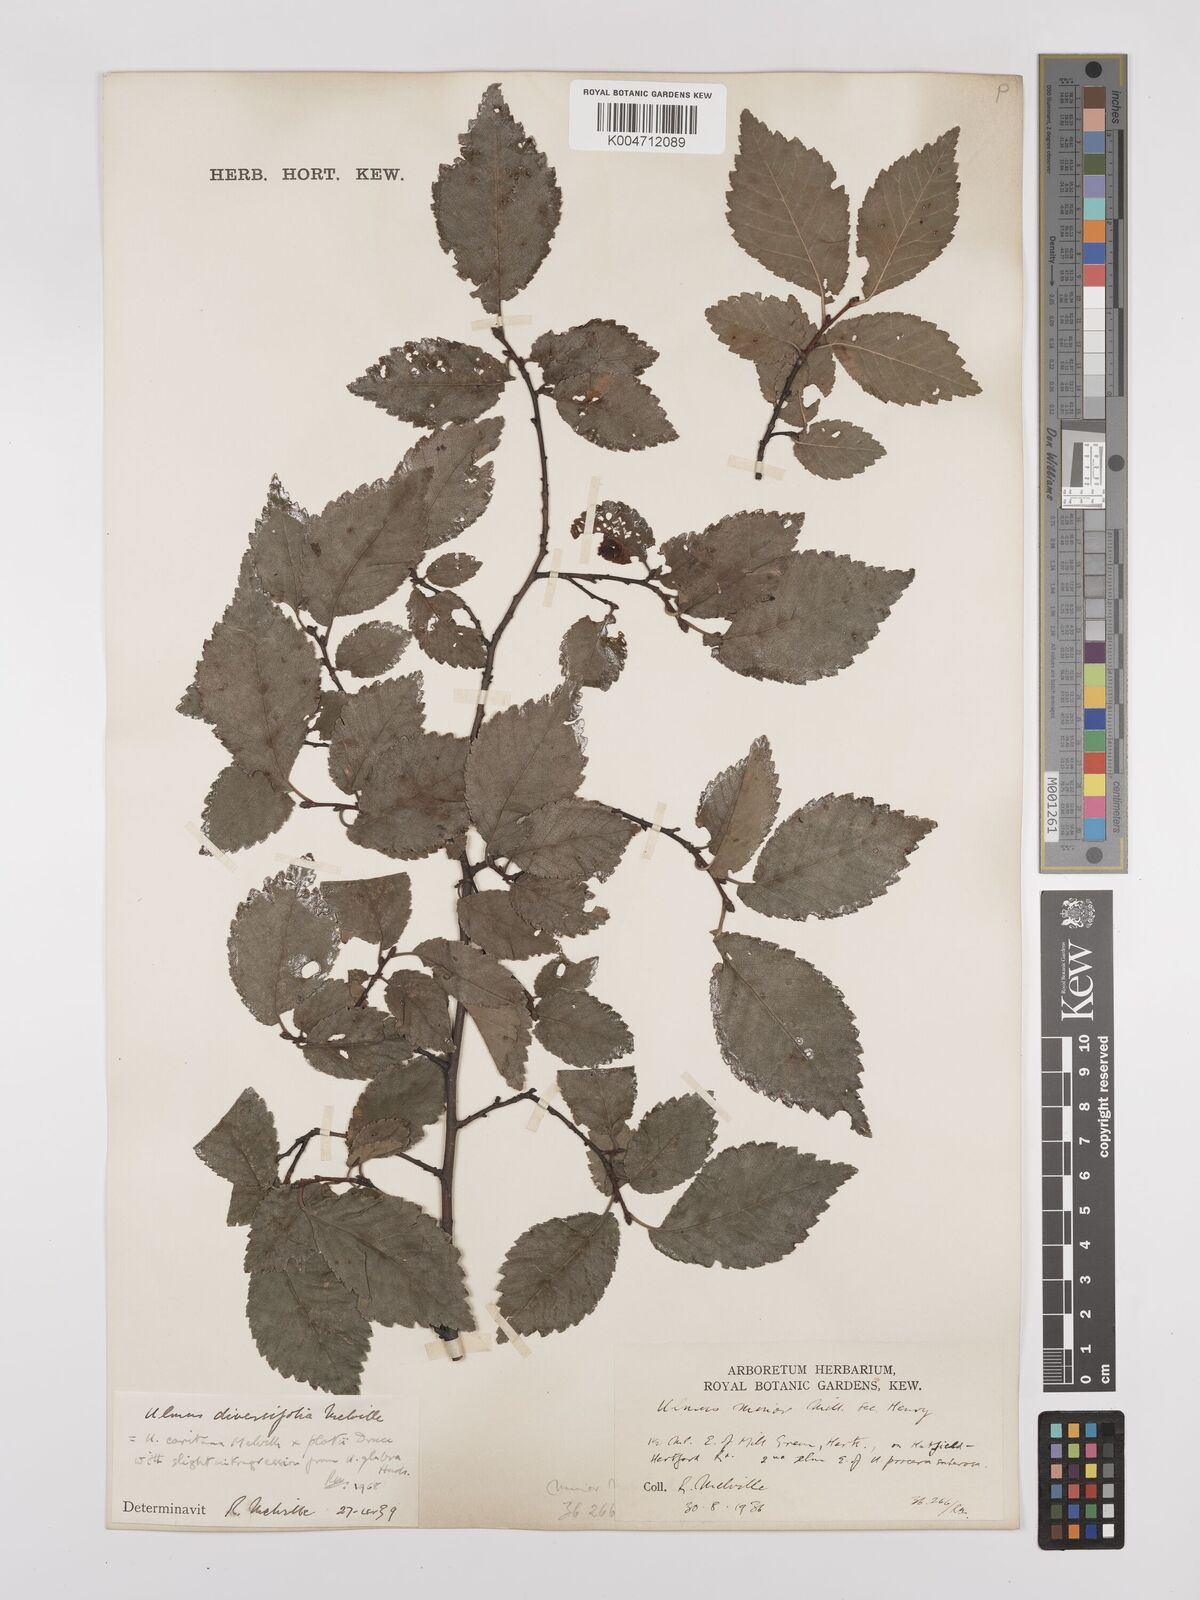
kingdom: Plantae
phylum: Tracheophyta
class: Magnoliopsida
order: Rosales
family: Ulmaceae
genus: Ulmus
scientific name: Ulmus minor
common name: Small-leaved elm
